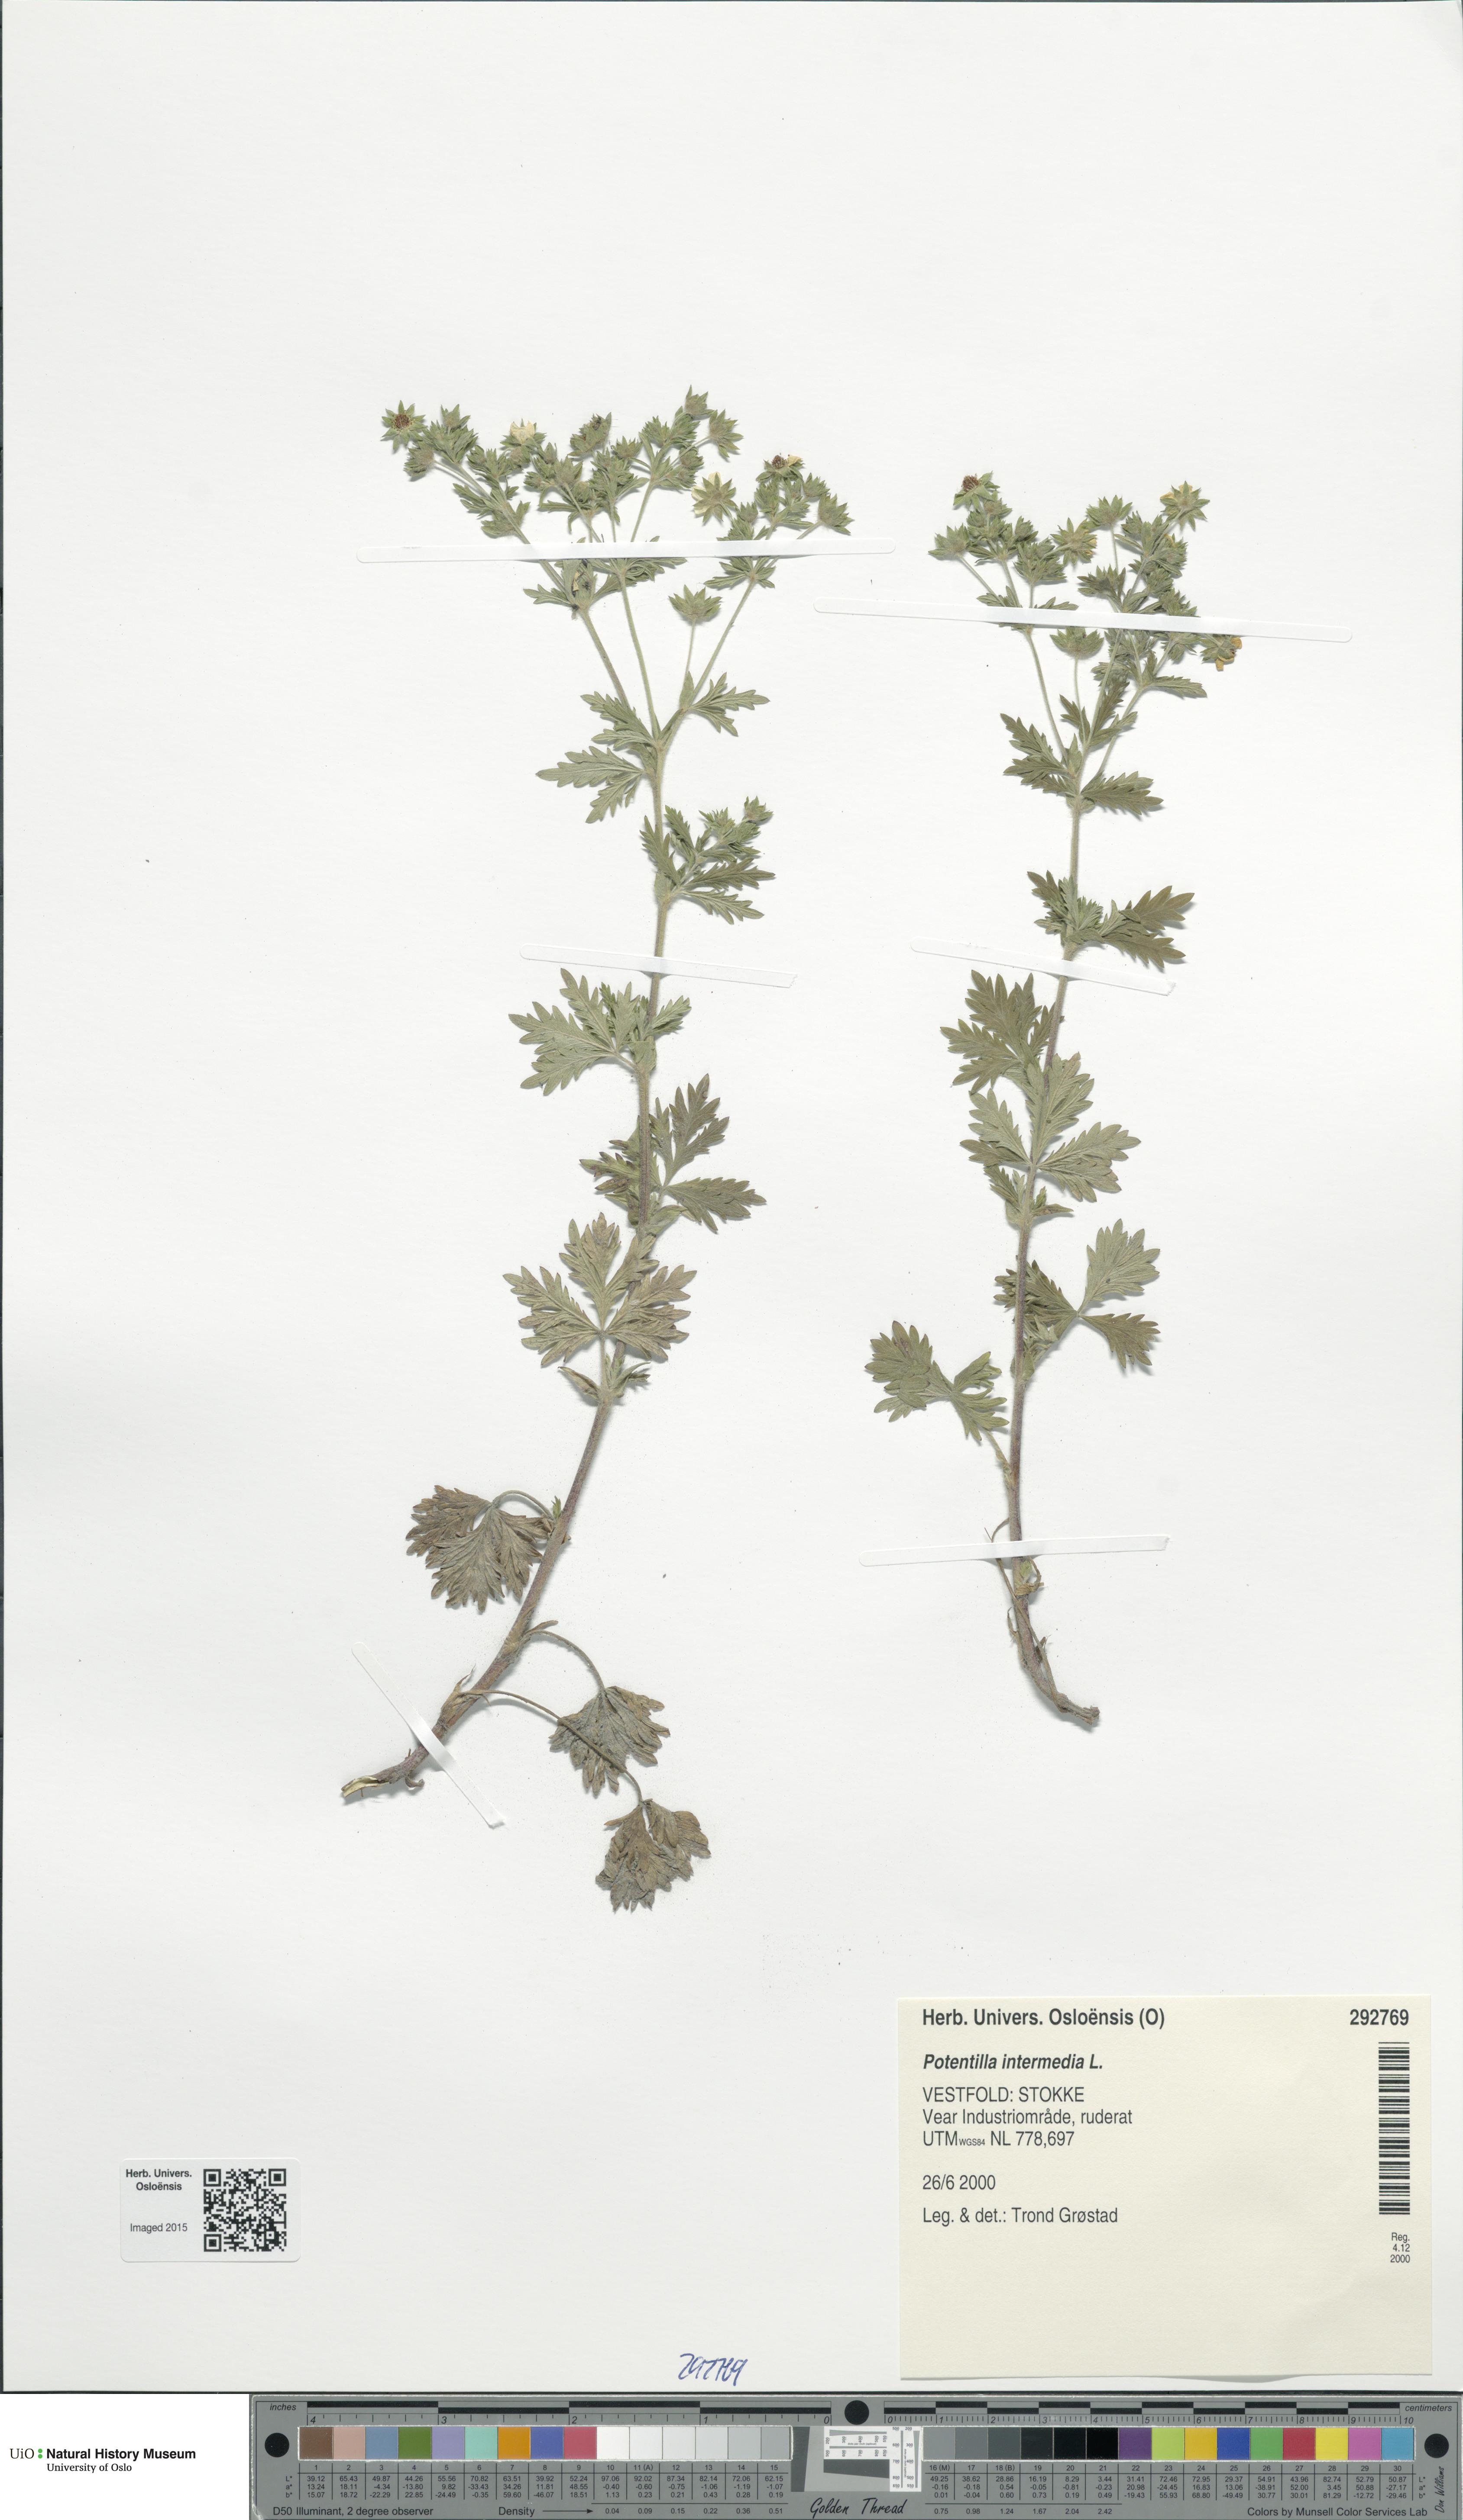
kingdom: Plantae
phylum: Tracheophyta
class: Magnoliopsida
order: Rosales
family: Rosaceae
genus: Potentilla
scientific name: Potentilla intermedia
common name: Downy cinquefoil
